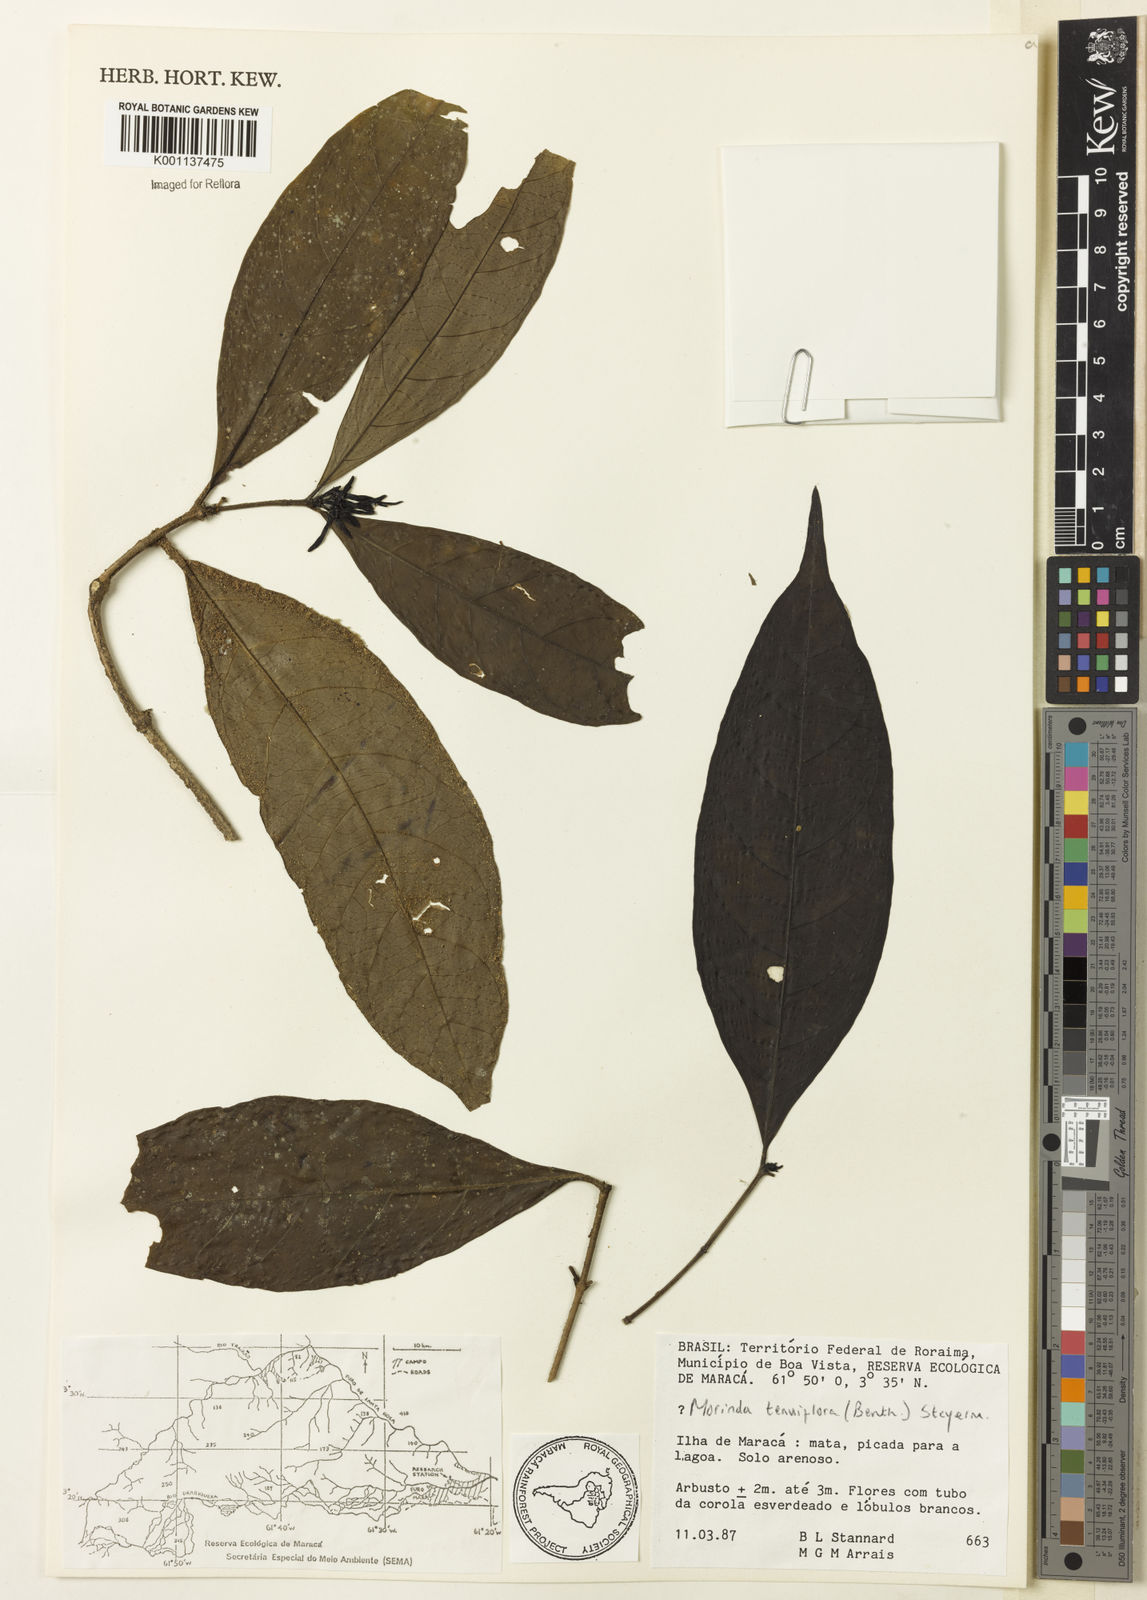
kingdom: Plantae
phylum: Tracheophyta
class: Magnoliopsida
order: Gentianales
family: Rubiaceae
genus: Appunia
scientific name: Appunia tenuiflora
